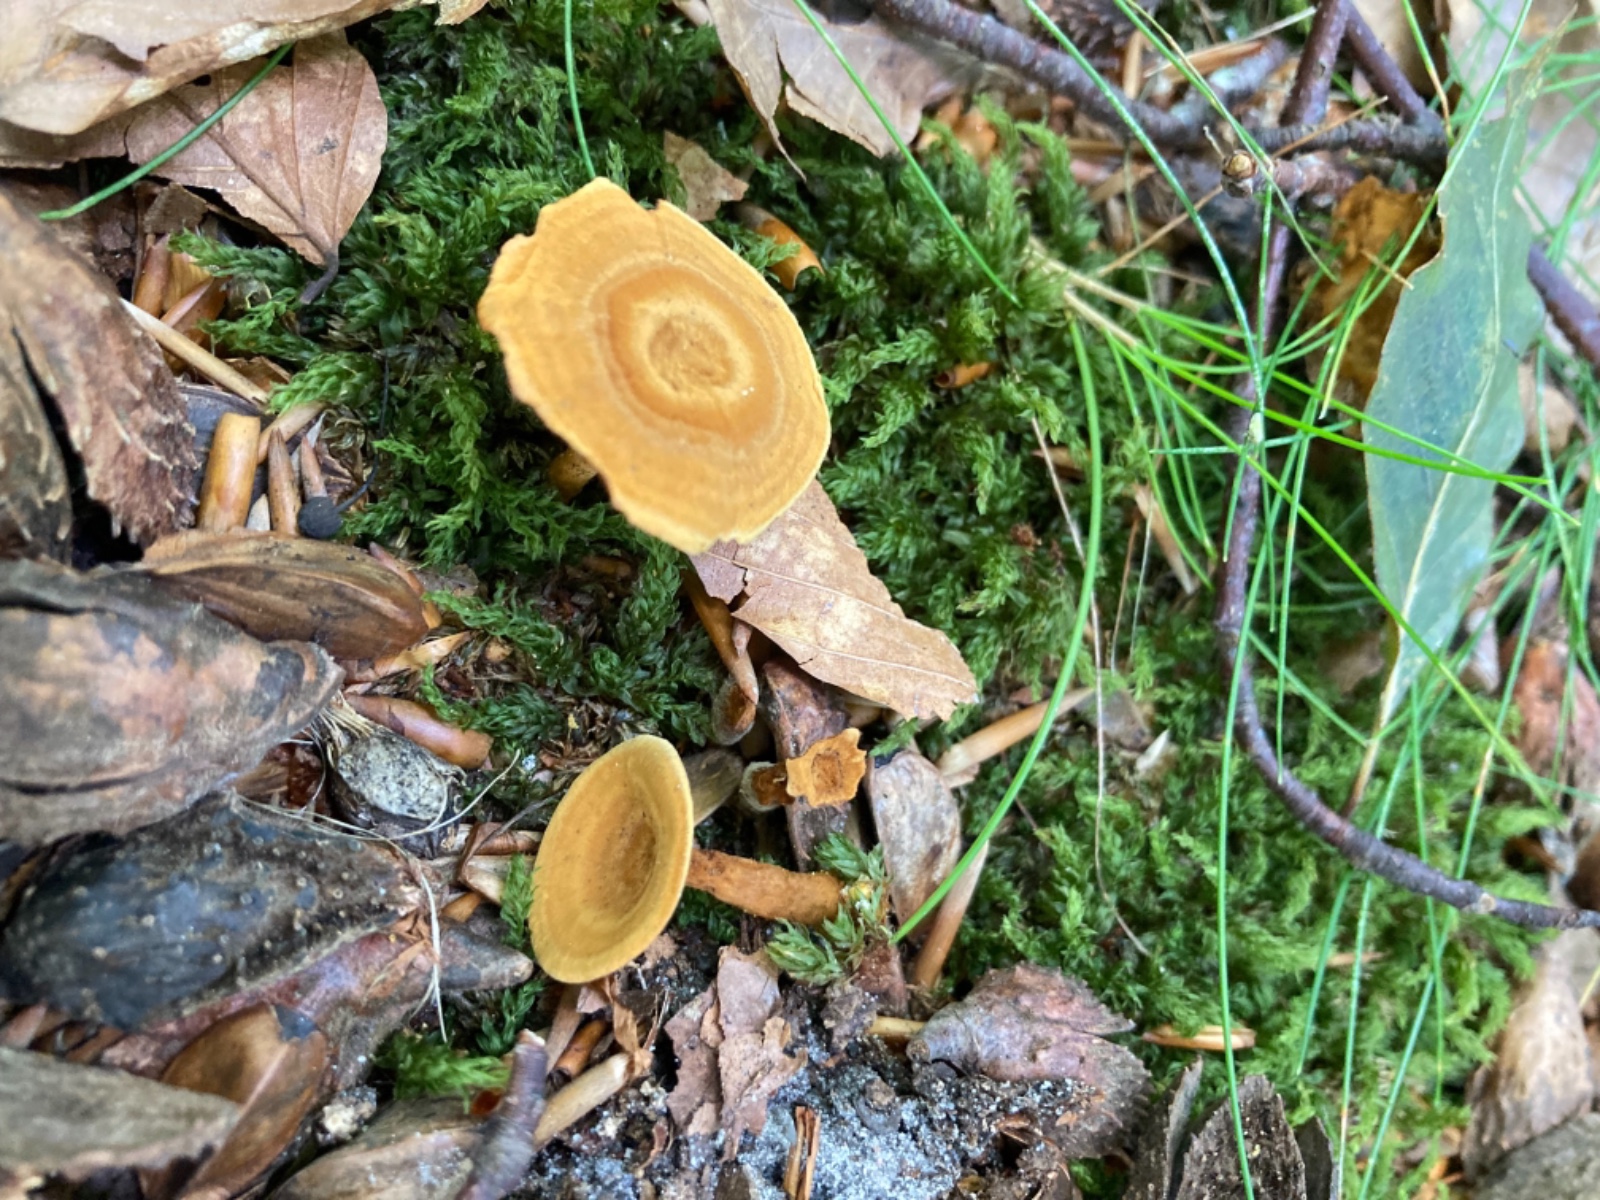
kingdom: Fungi
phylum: Basidiomycota
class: Agaricomycetes
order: Hymenochaetales
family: Hymenochaetaceae
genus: Coltricia
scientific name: Coltricia perennis
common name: almindelig sandporesvamp
